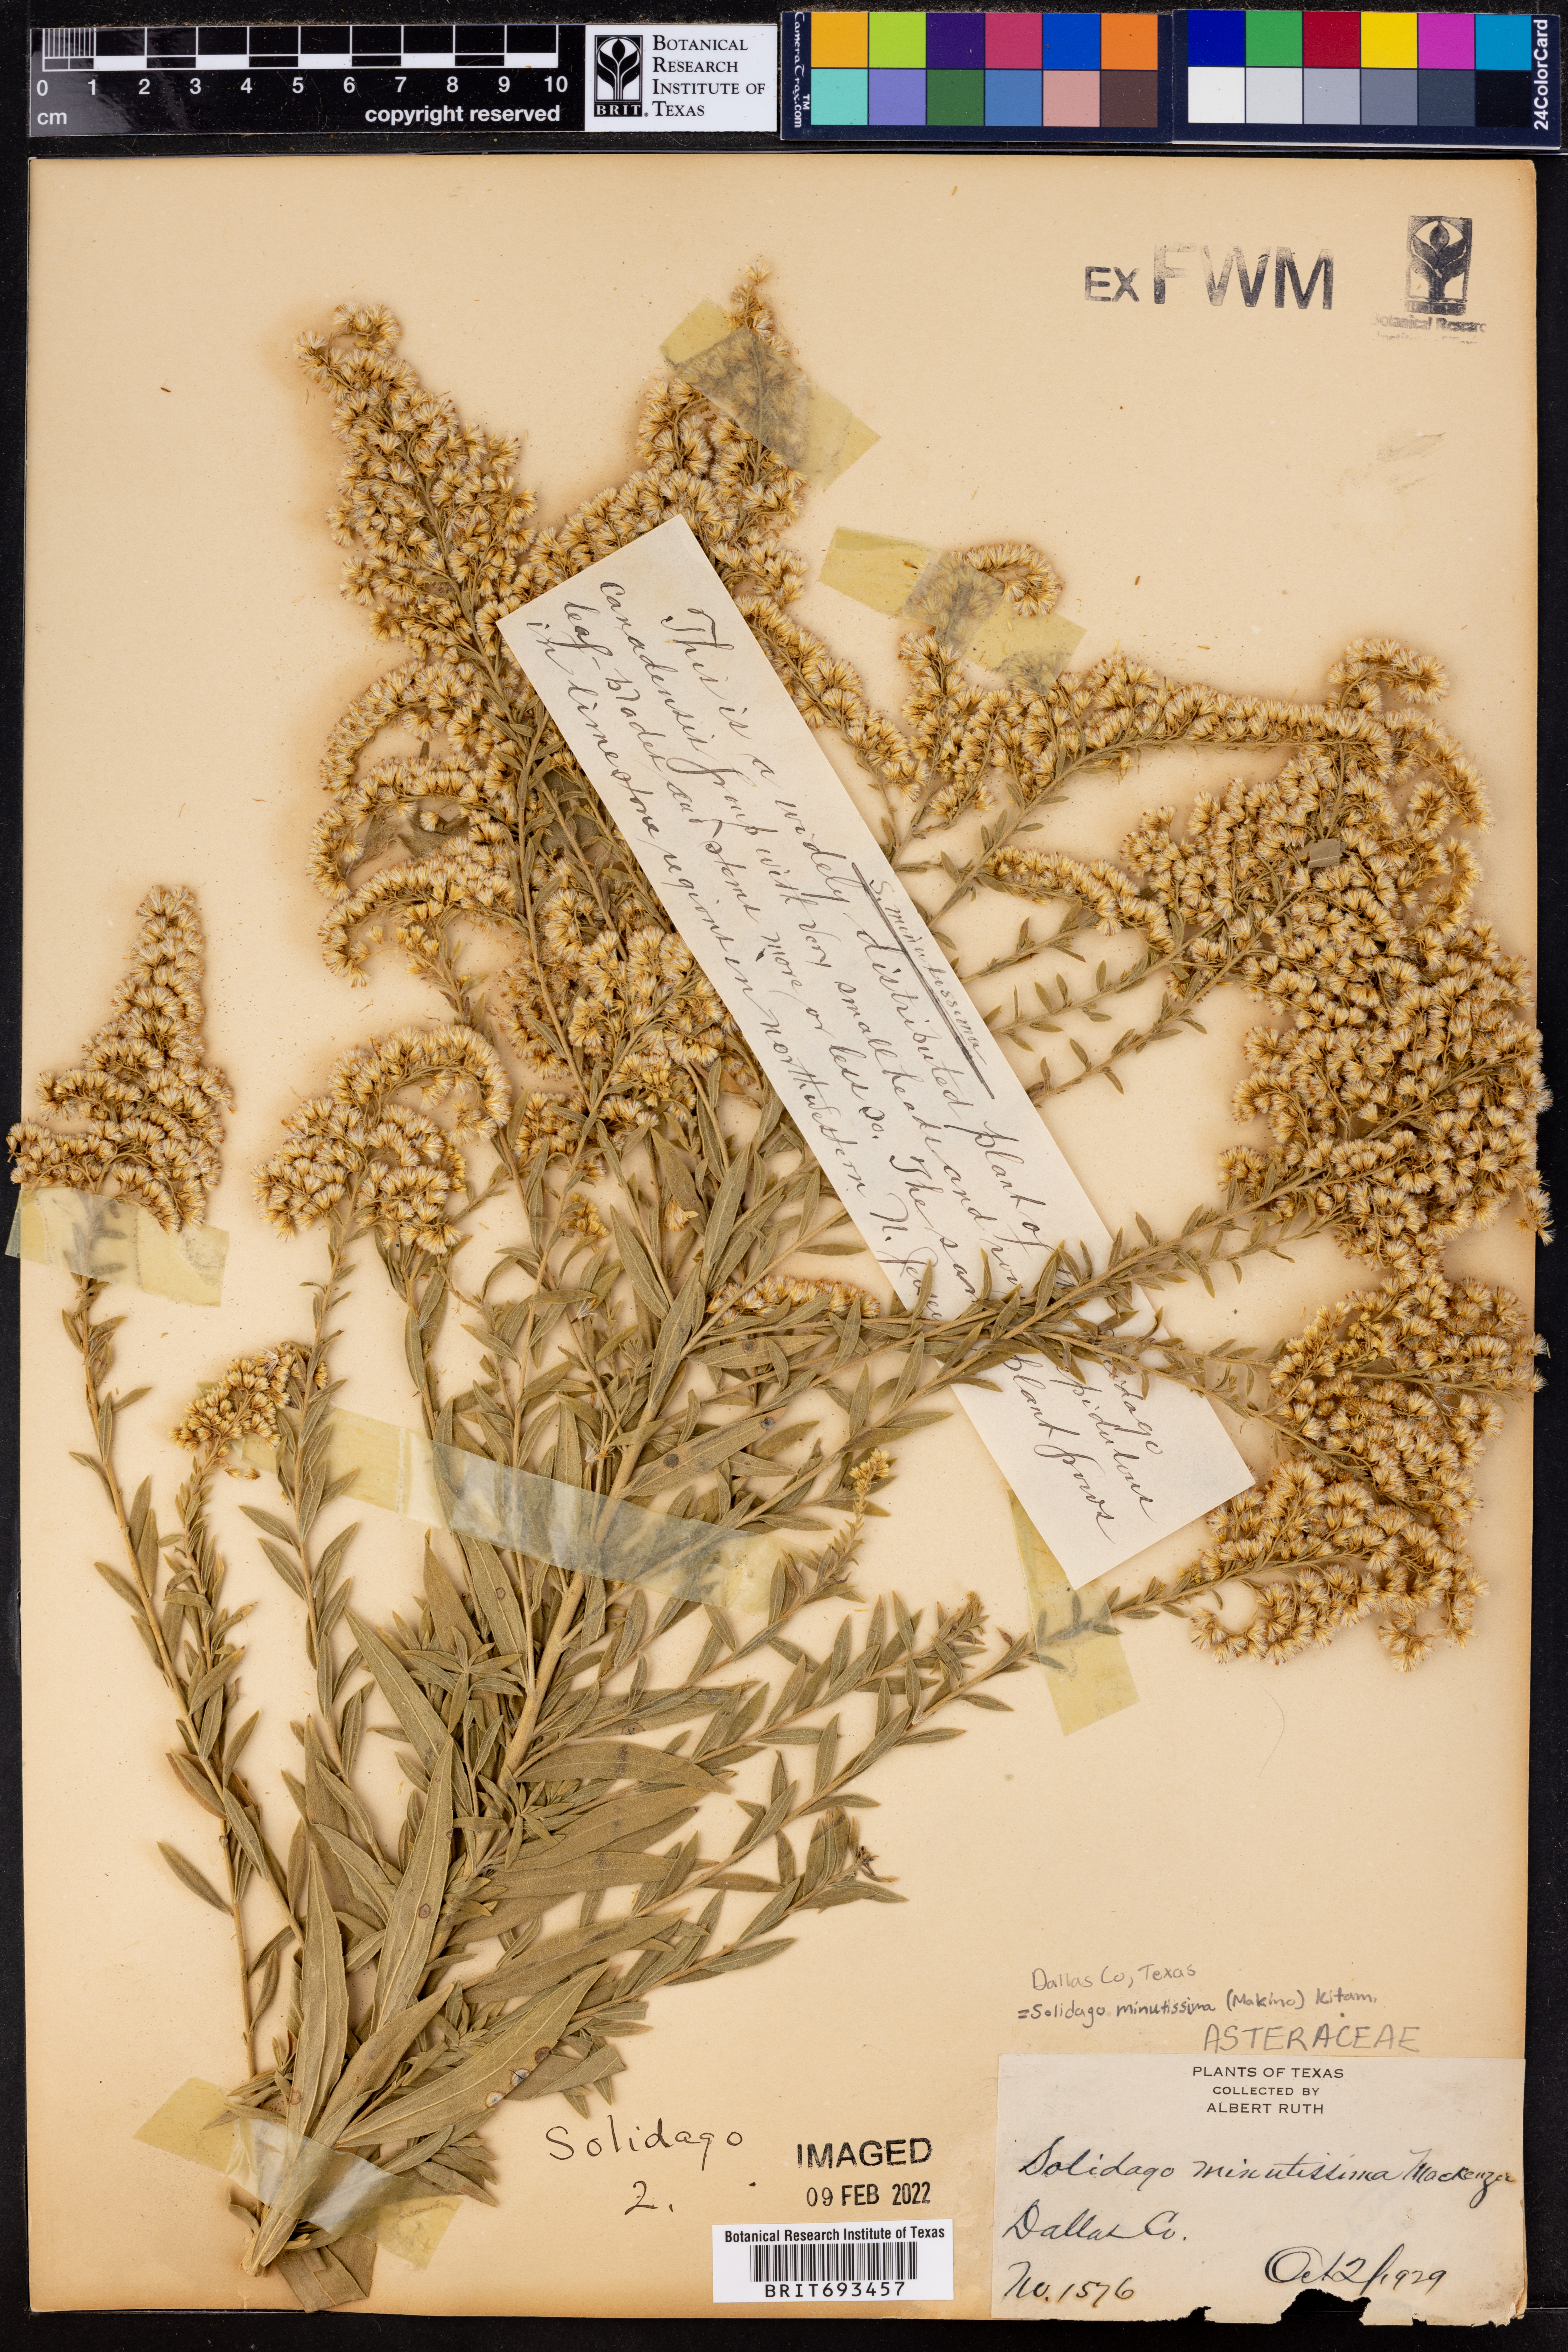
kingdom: Plantae
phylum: Tracheophyta
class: Magnoliopsida
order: Asterales
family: Asteraceae
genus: Solidago
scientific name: Solidago minutissima
